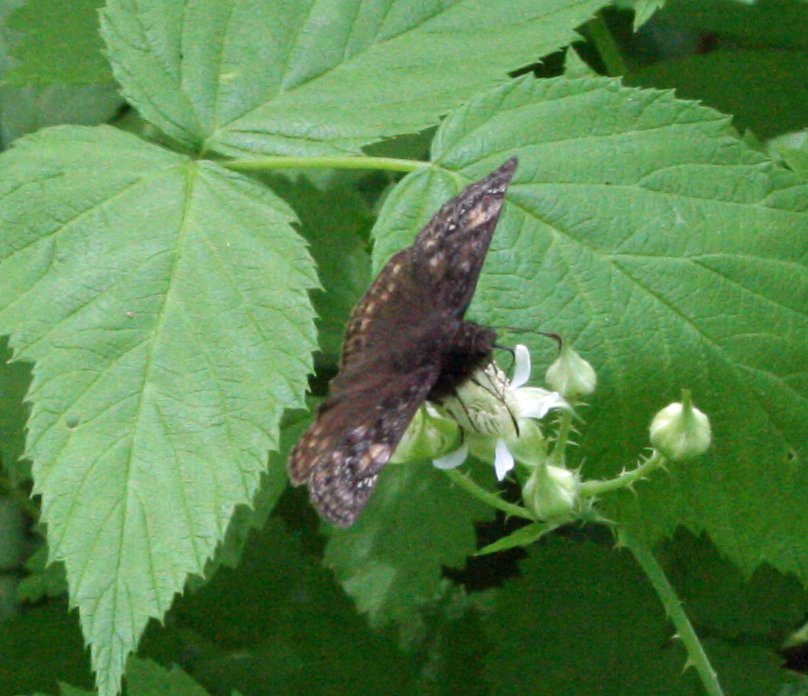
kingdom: Animalia
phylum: Arthropoda
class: Insecta
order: Lepidoptera
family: Hesperiidae
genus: Gesta
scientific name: Gesta
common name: Juvenal's Duskywing
